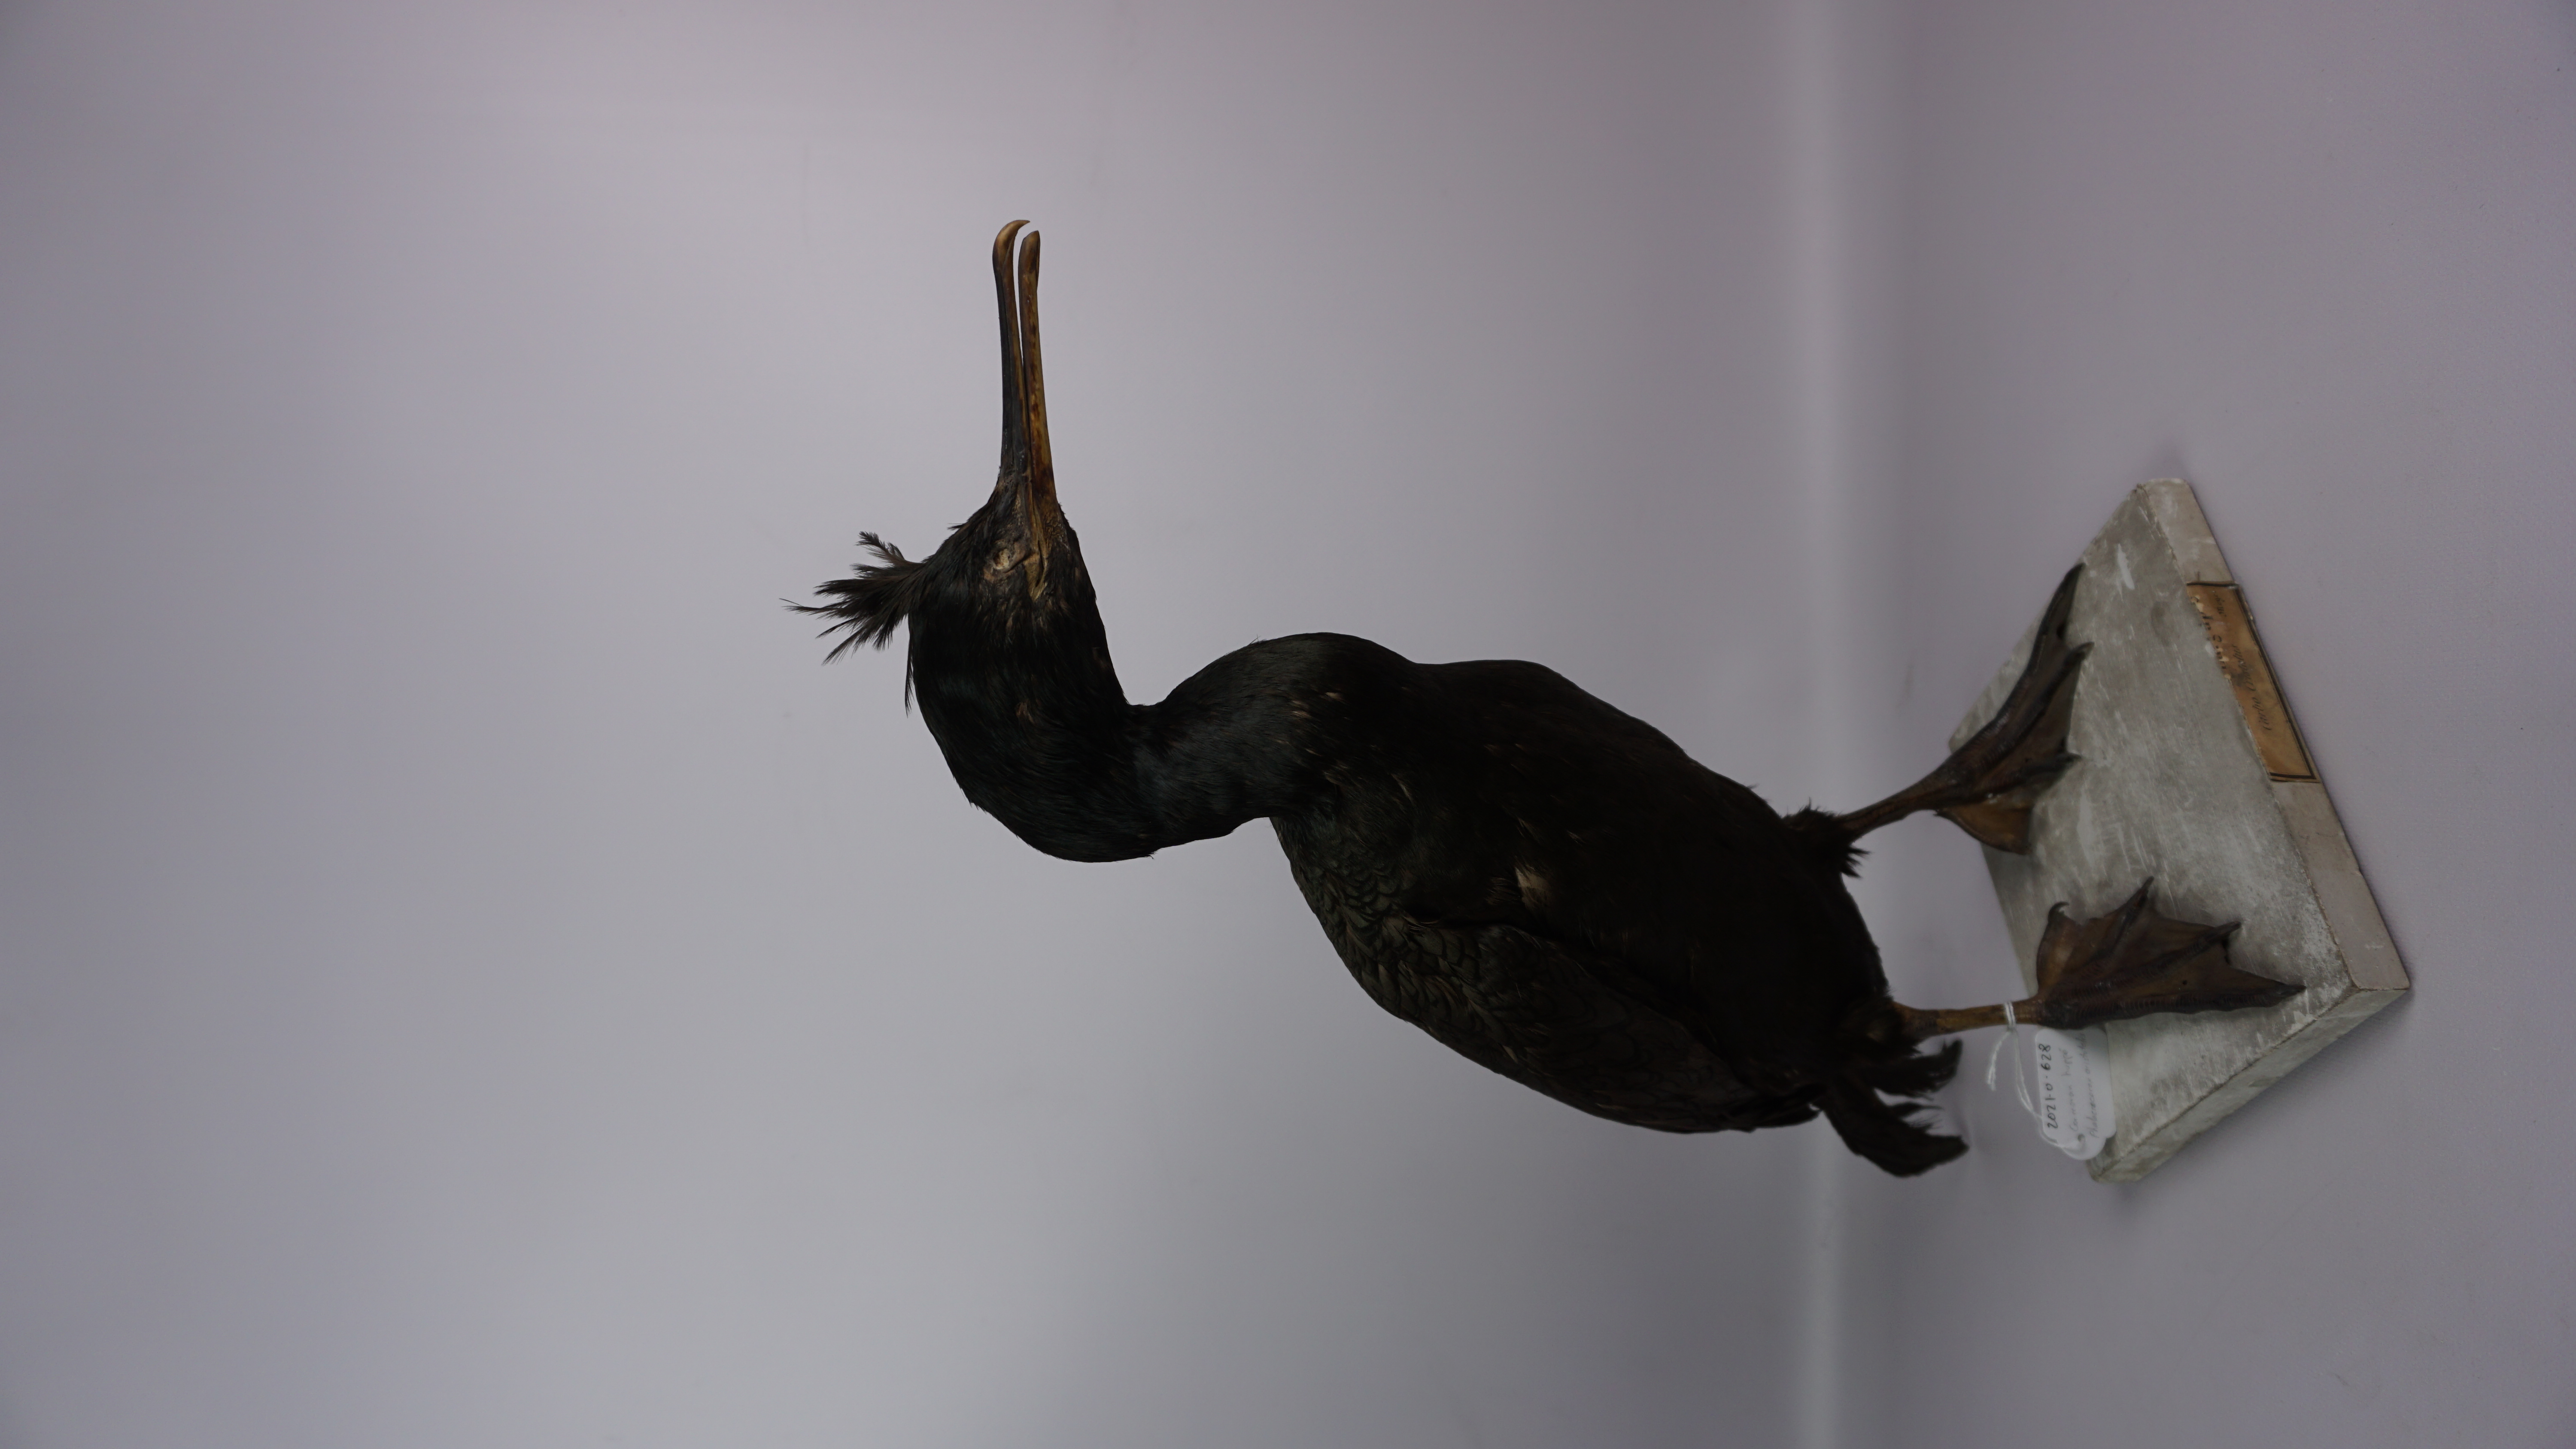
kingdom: Animalia
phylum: Chordata
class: Aves
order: Suliformes
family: Phalacrocoracidae
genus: Phalacrocorax
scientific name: Phalacrocorax aristotelis
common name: European shag
